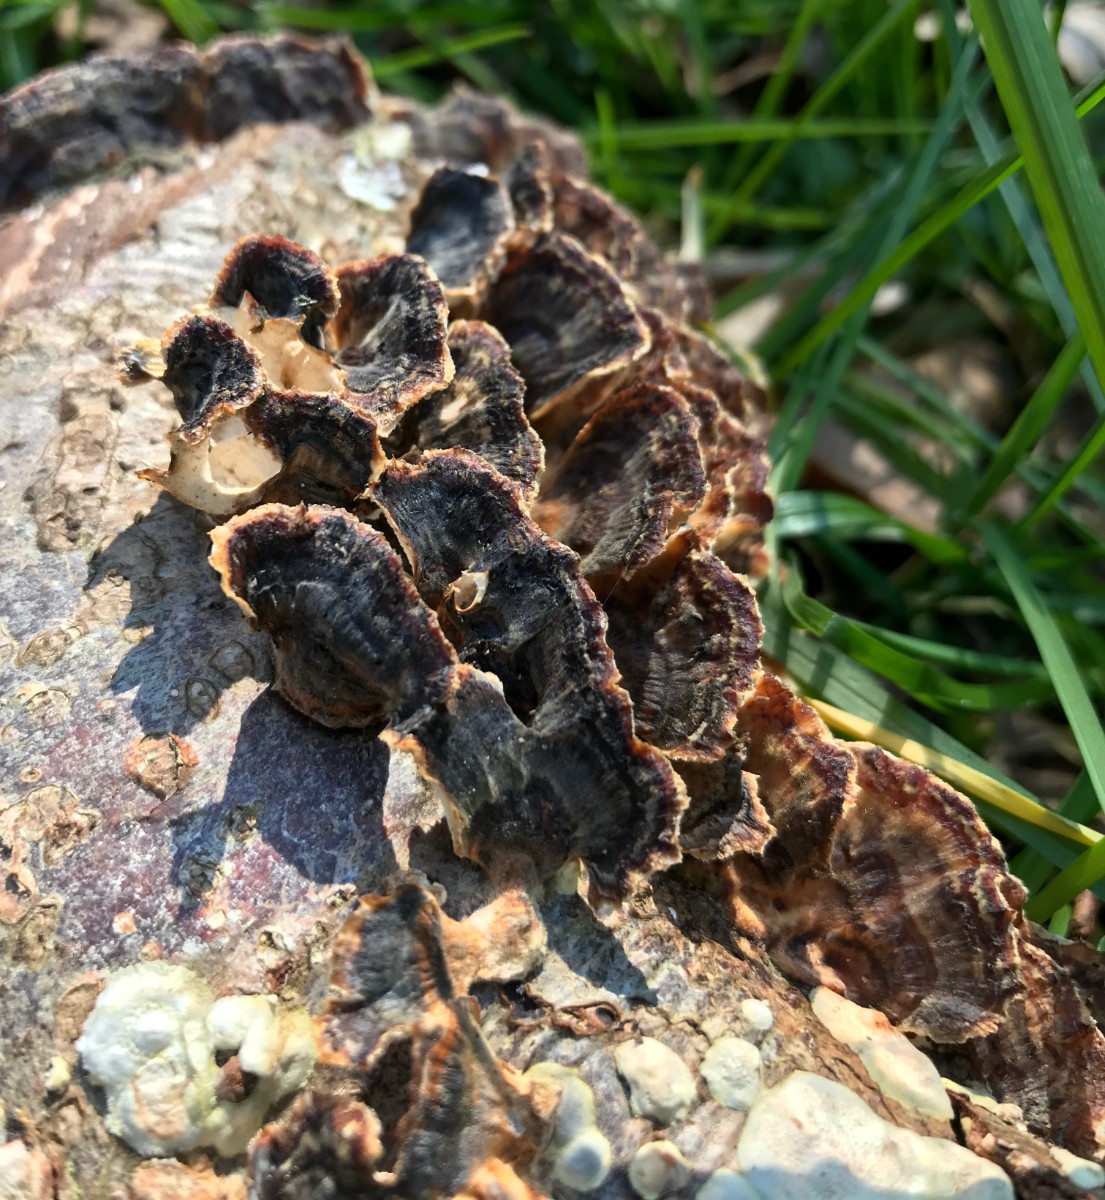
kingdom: Fungi
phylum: Basidiomycota
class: Agaricomycetes
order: Polyporales
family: Polyporaceae
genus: Trametes
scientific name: Trametes versicolor
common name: broget læderporesvamp
